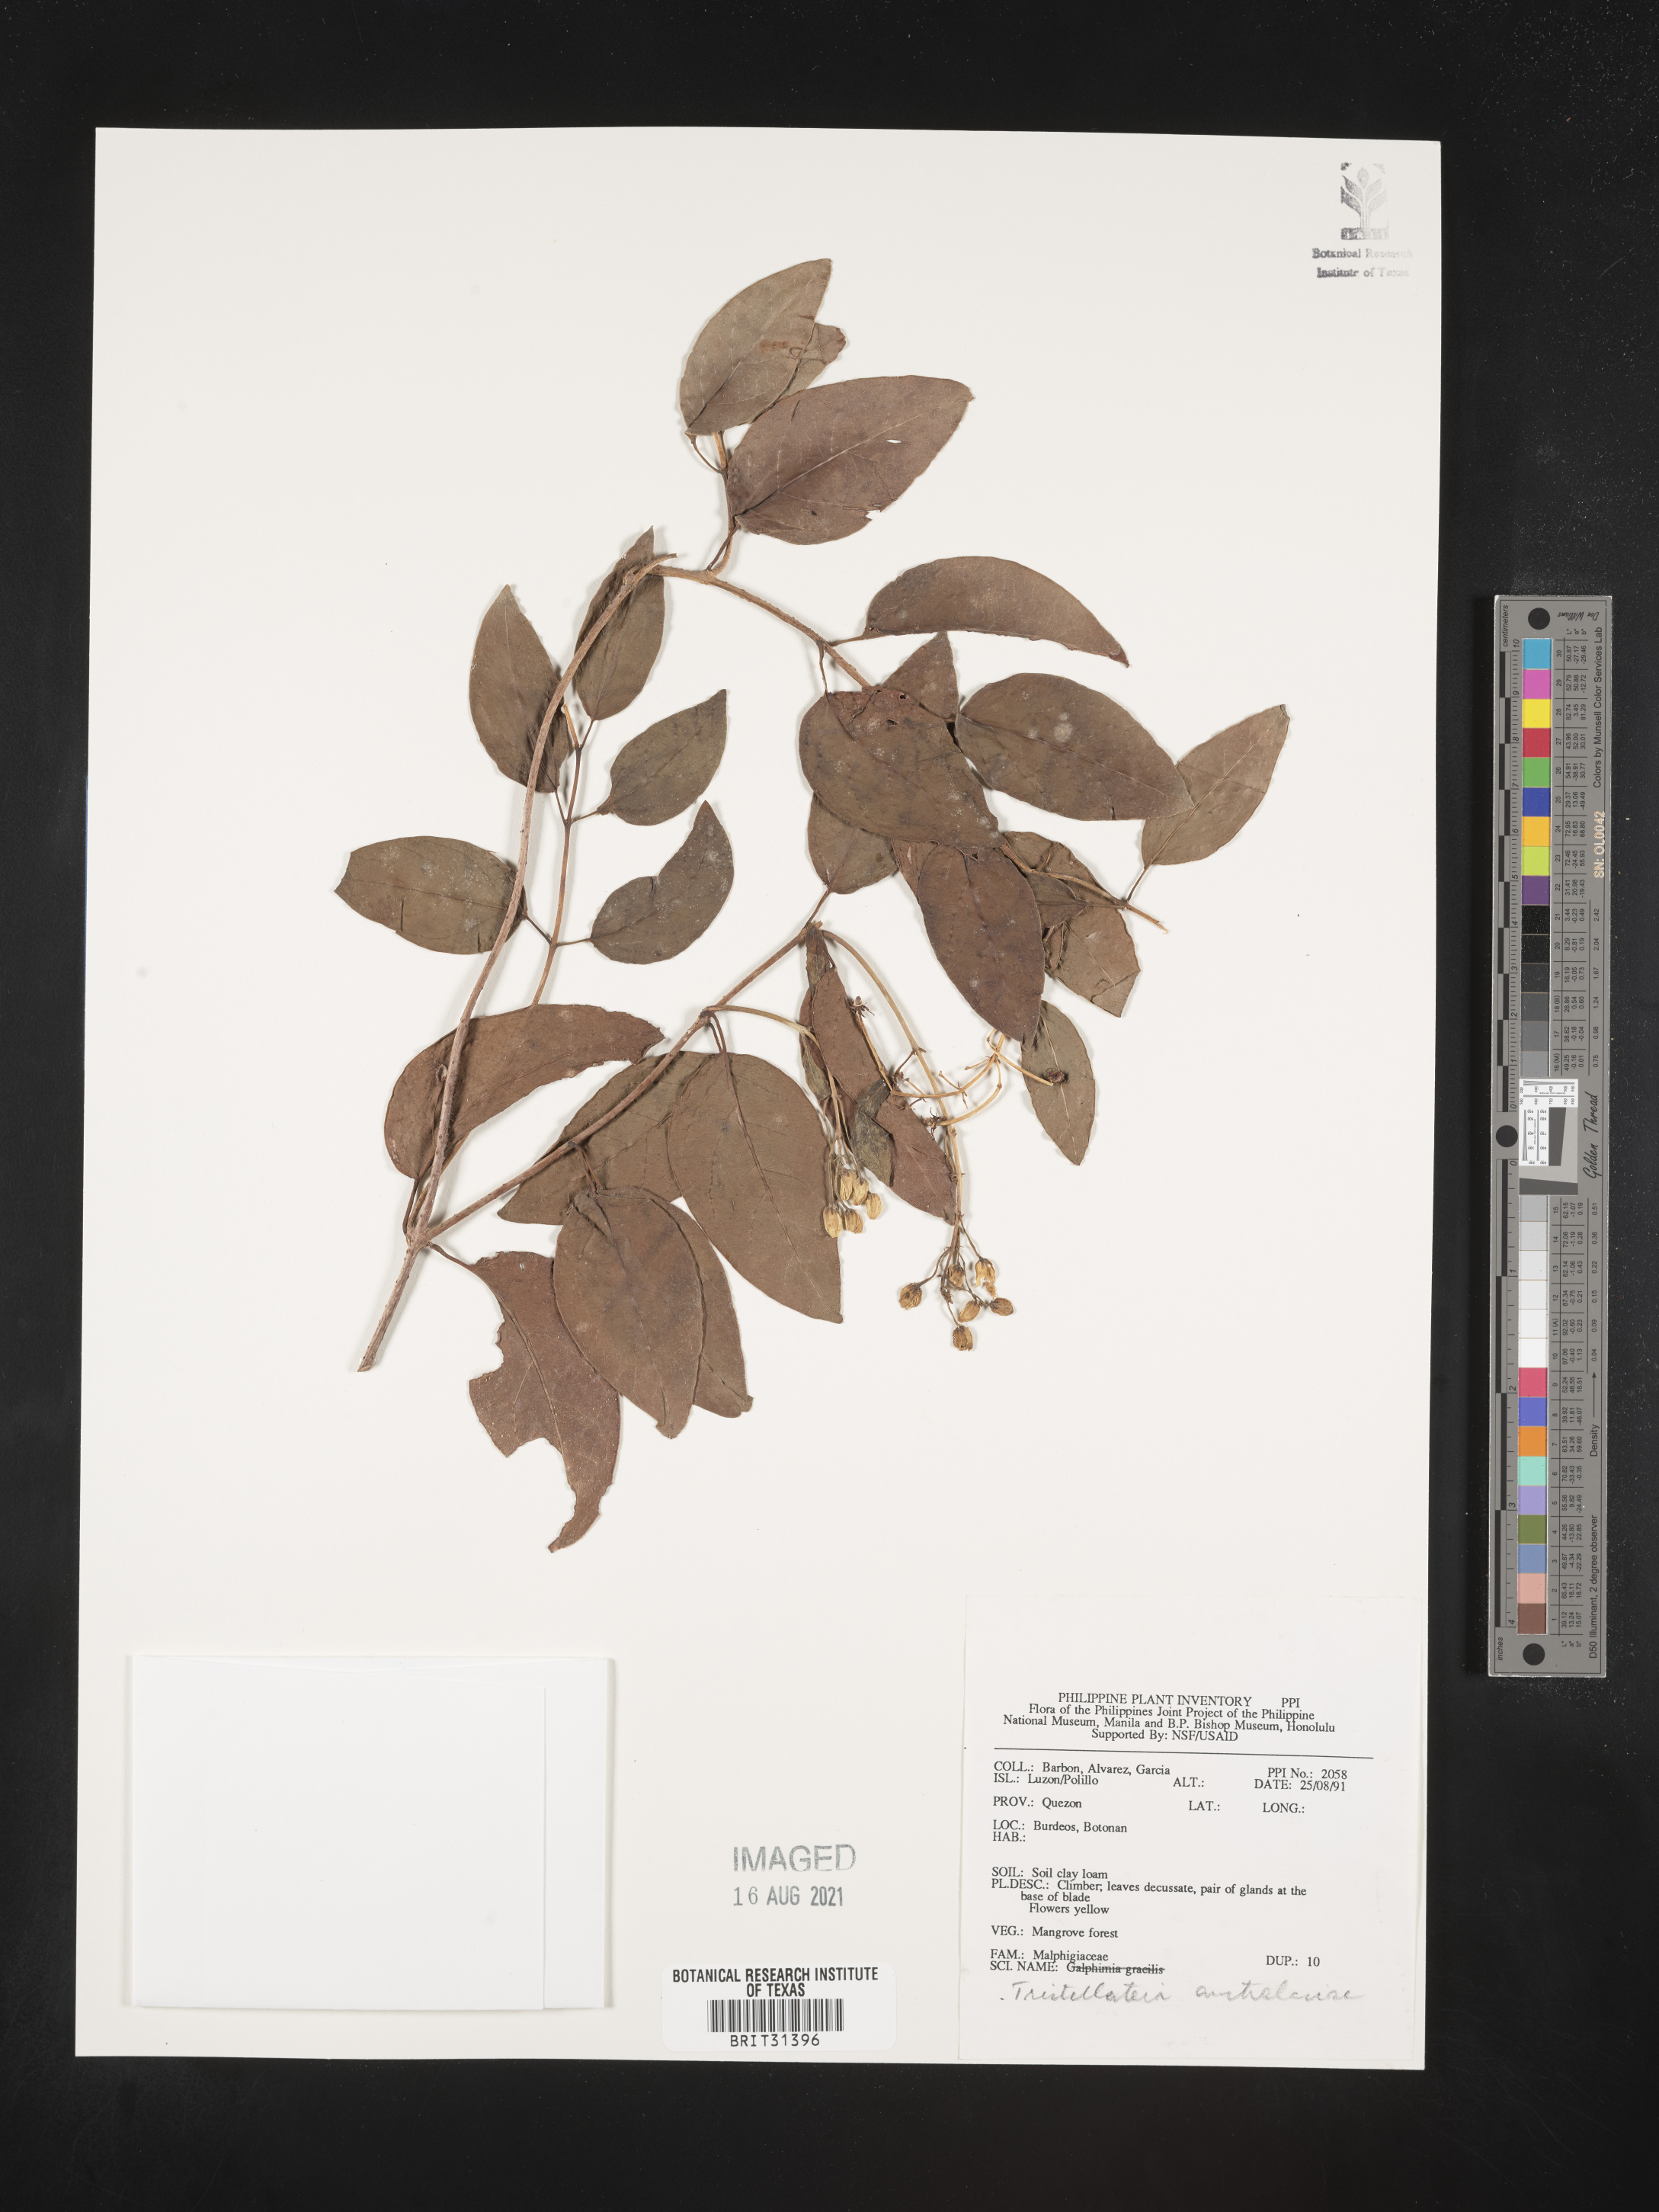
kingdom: Plantae
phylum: Tracheophyta
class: Magnoliopsida
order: Malpighiales
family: Malpighiaceae
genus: Tristellateia
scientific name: Tristellateia australasiae
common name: Australian goldvine
